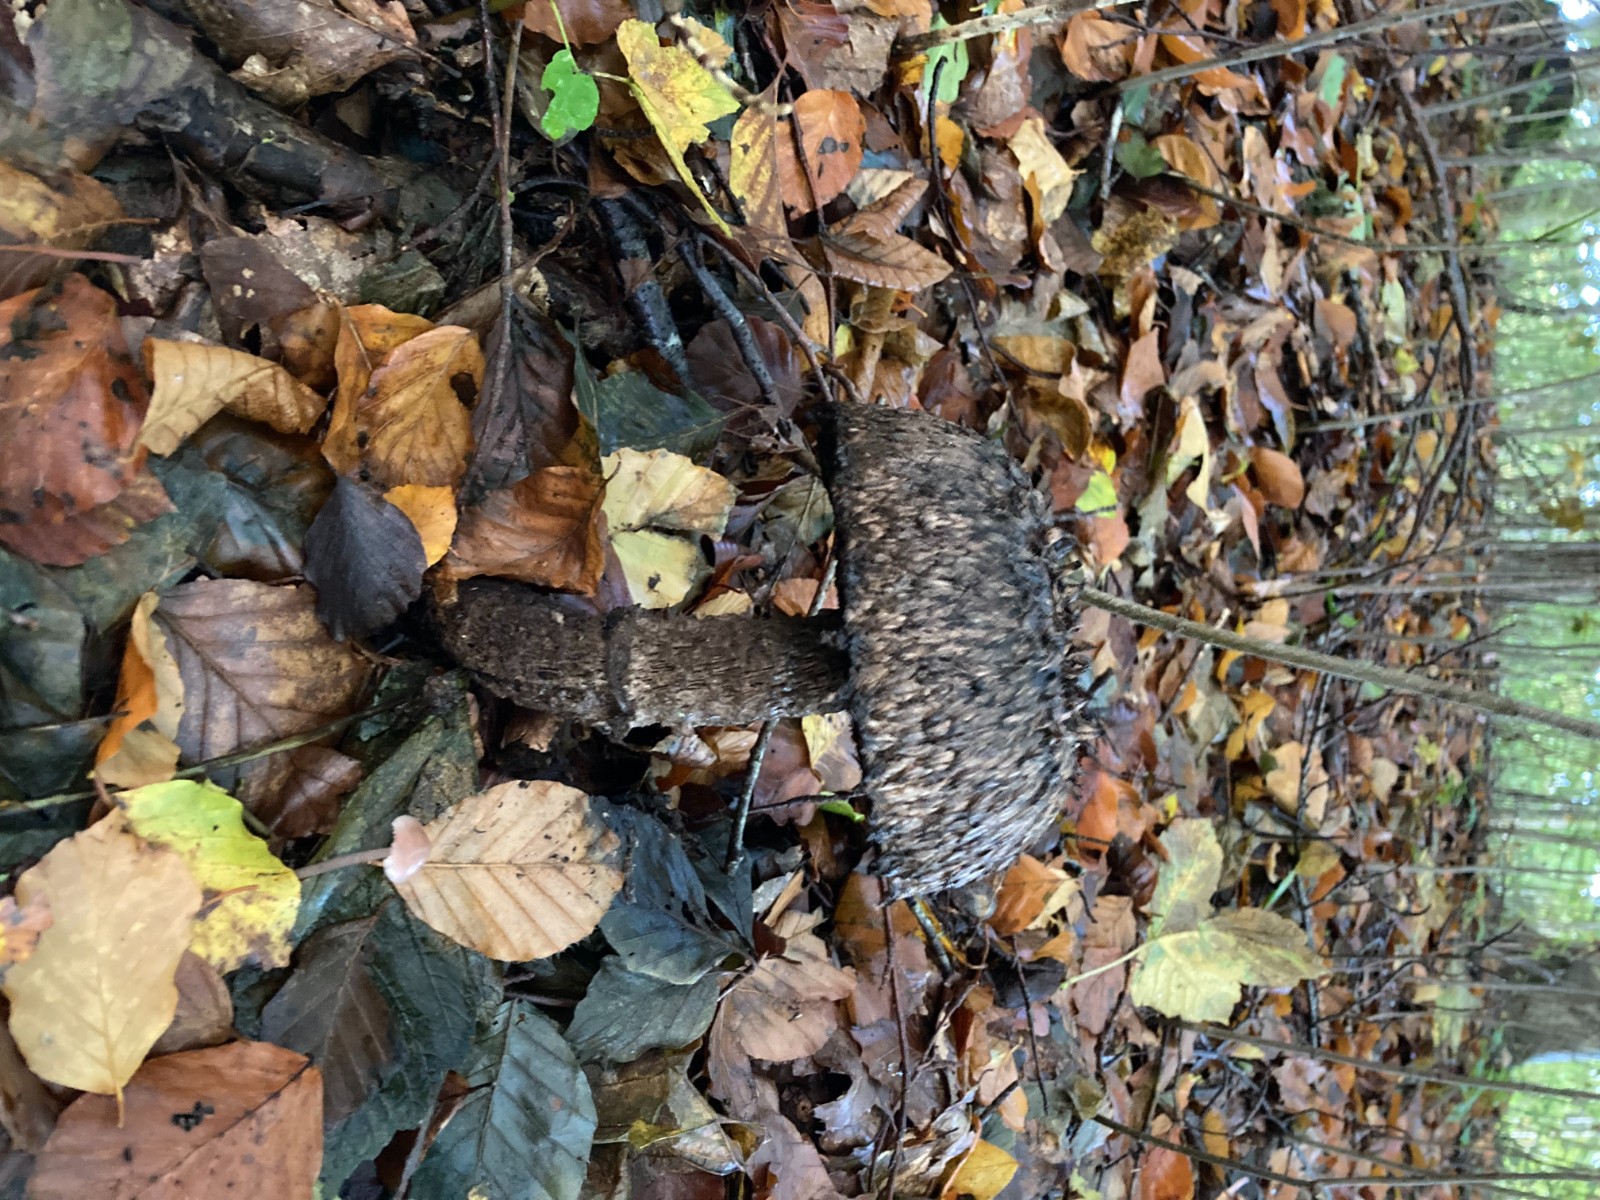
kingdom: Fungi
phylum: Basidiomycota
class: Agaricomycetes
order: Boletales
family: Boletaceae
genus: Strobilomyces
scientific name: Strobilomyces strobilaceus
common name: koglerørhat
